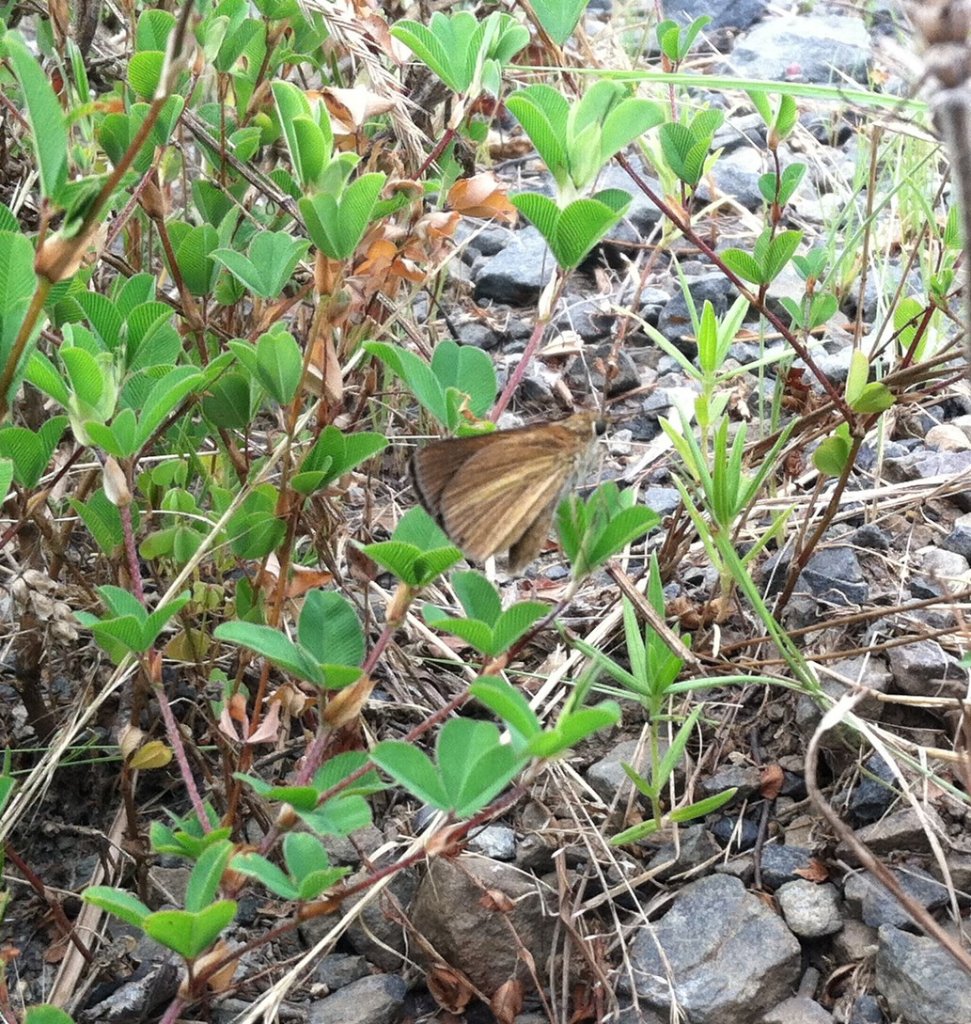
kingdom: Animalia
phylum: Arthropoda
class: Insecta
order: Lepidoptera
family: Hesperiidae
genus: Euphyes
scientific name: Euphyes dukesi
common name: Dukes' Skipper
